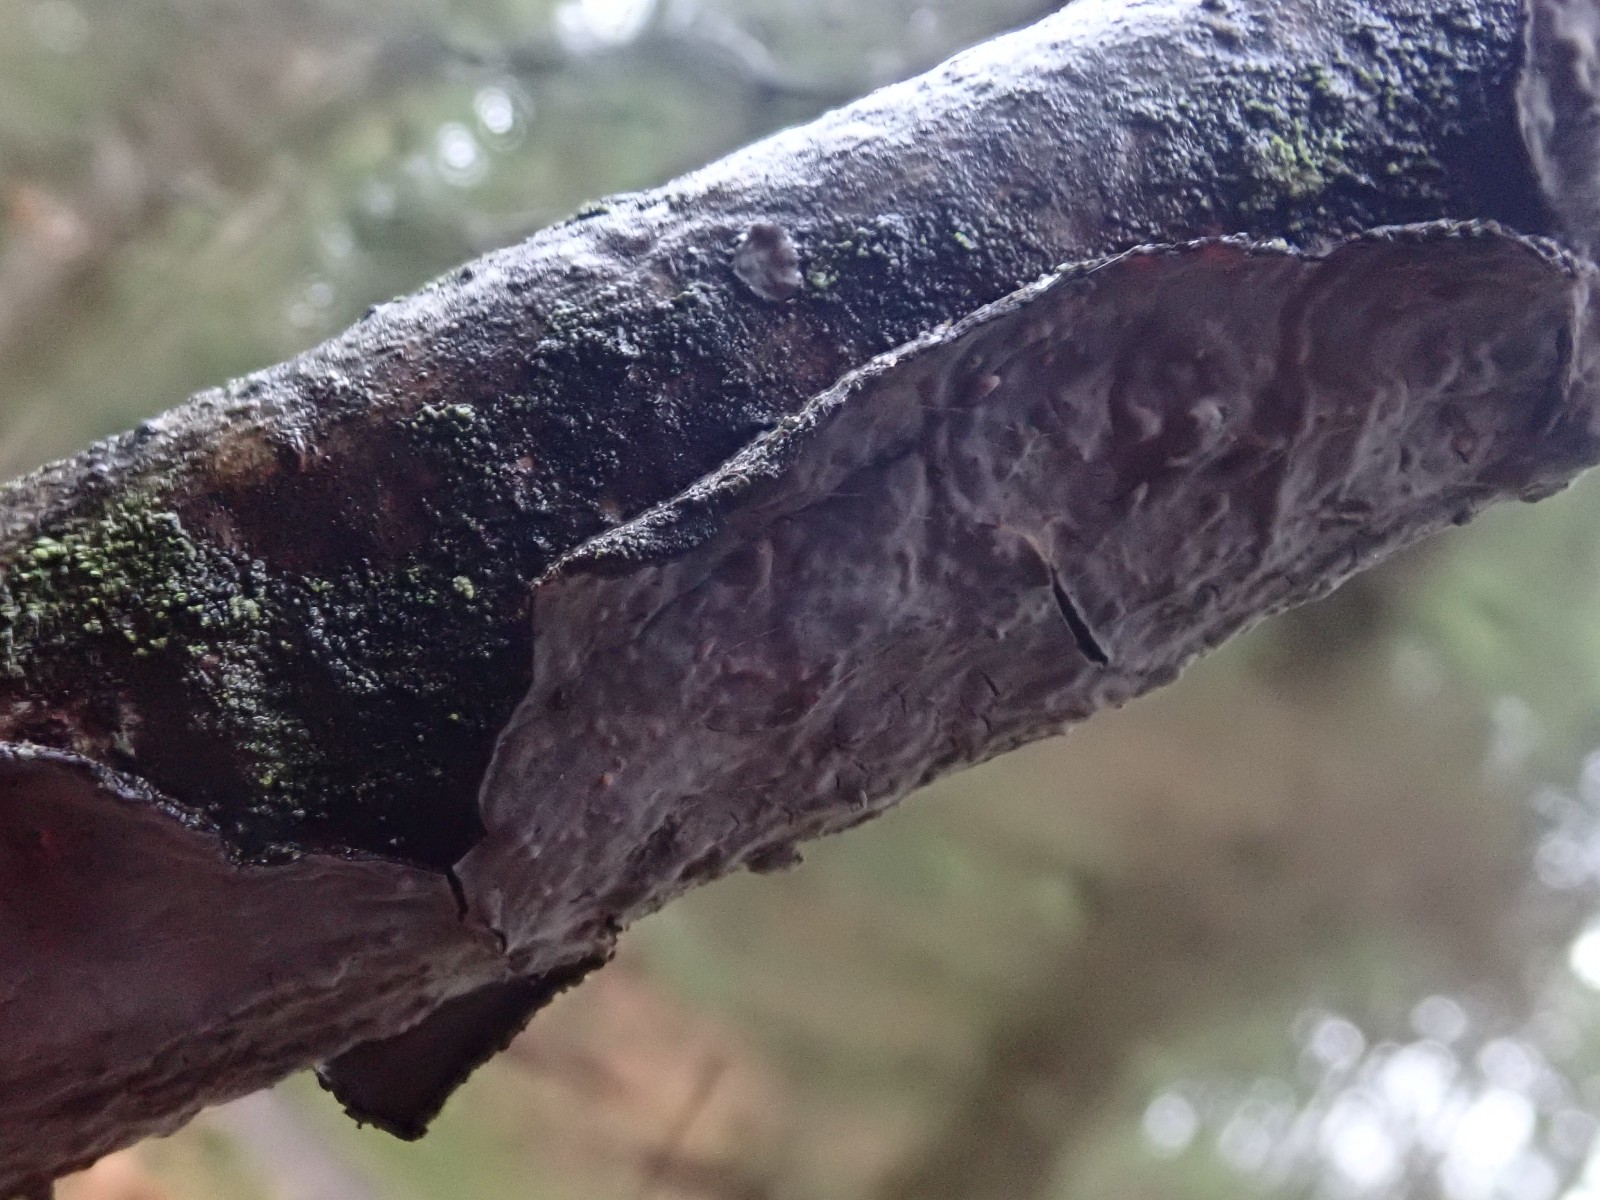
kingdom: Fungi
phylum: Basidiomycota
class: Agaricomycetes
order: Russulales
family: Peniophoraceae
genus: Peniophora
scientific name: Peniophora quercina
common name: ege-voksskind
